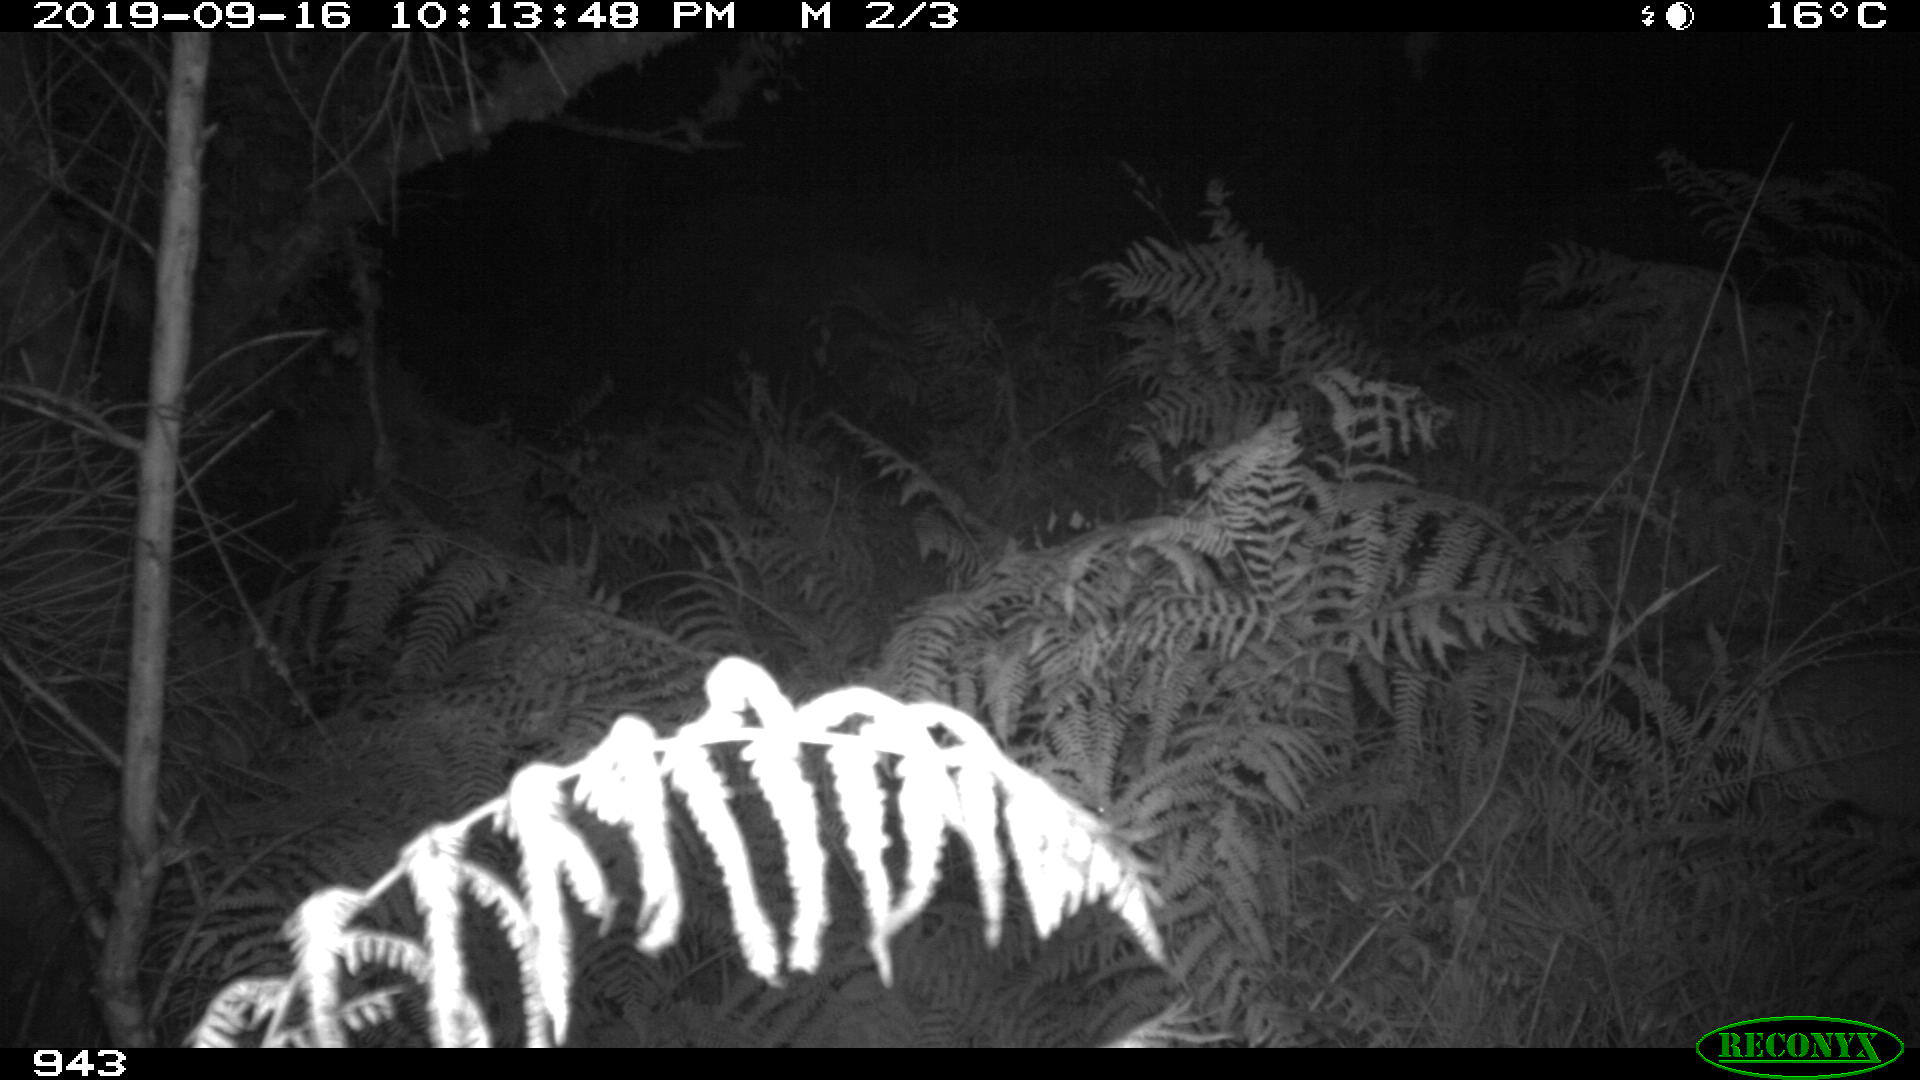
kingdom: Animalia
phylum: Chordata
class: Mammalia
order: Artiodactyla
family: Suidae
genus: Sus
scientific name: Sus scrofa
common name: Wild boar
